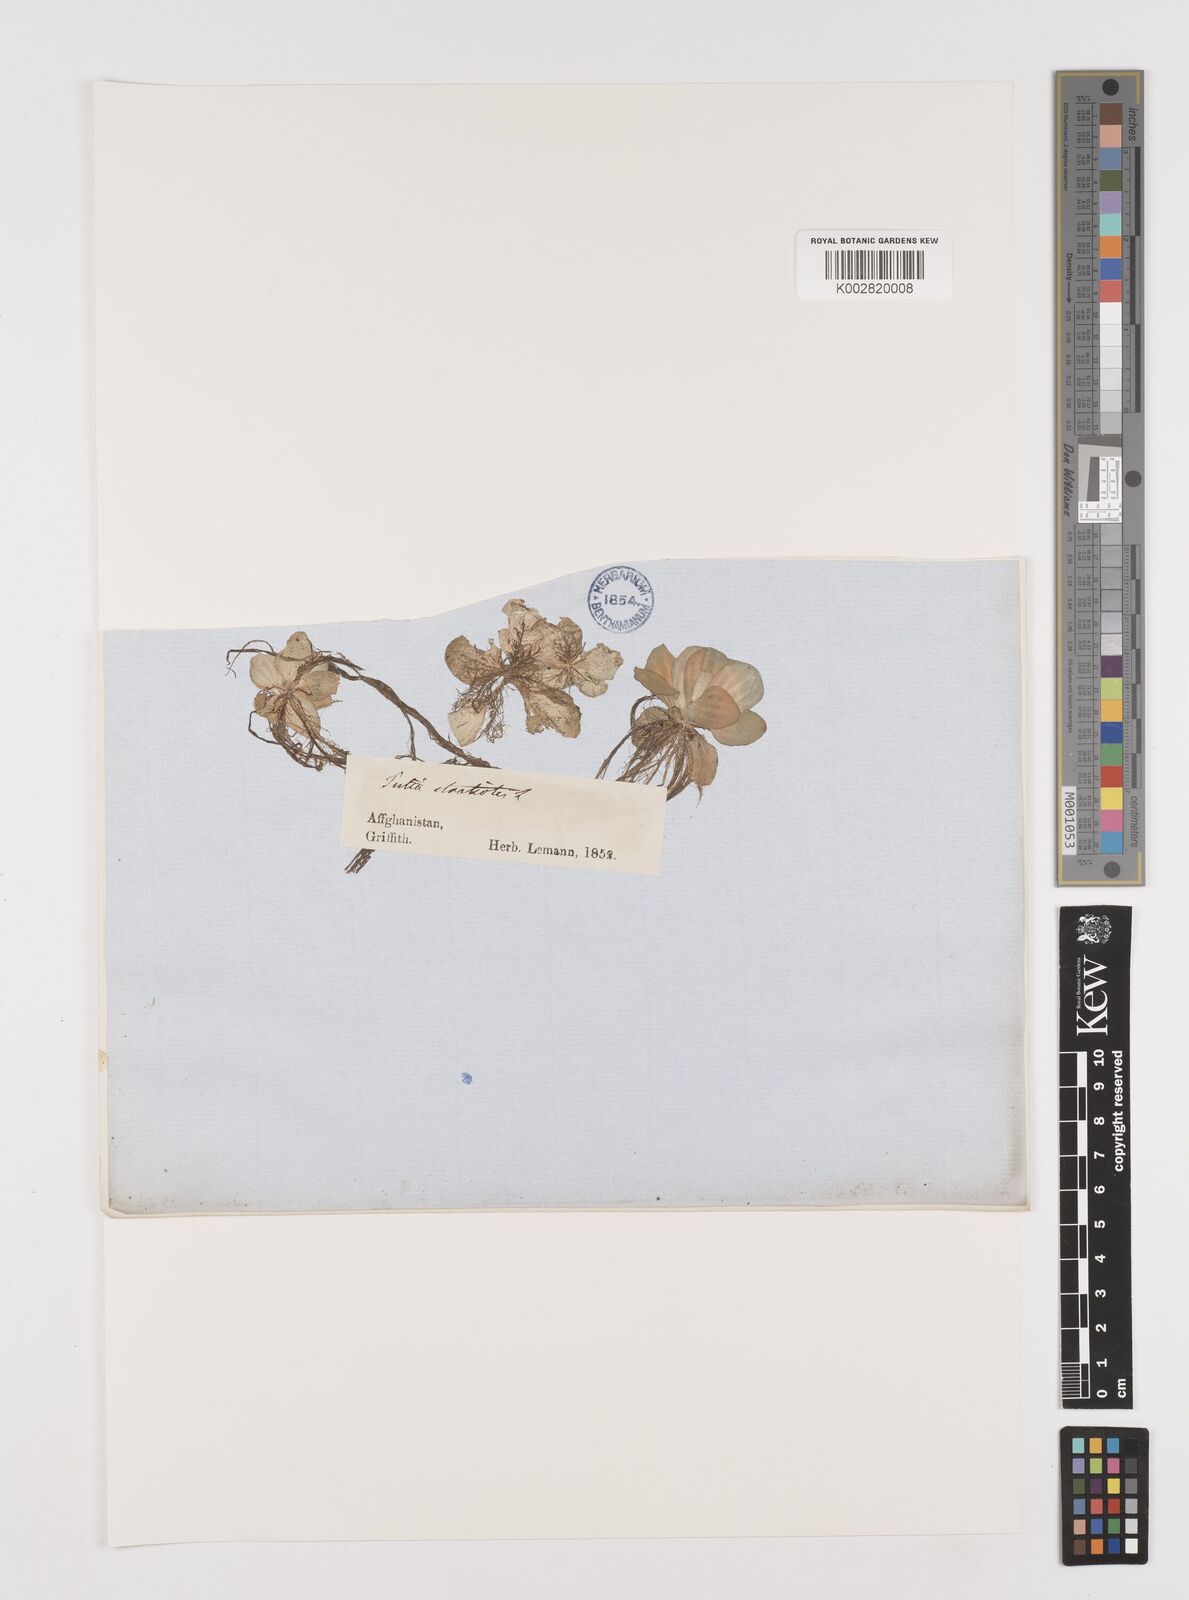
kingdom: Plantae
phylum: Tracheophyta
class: Liliopsida
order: Alismatales
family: Araceae
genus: Pistia
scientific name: Pistia stratiotes
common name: Water lettuce
